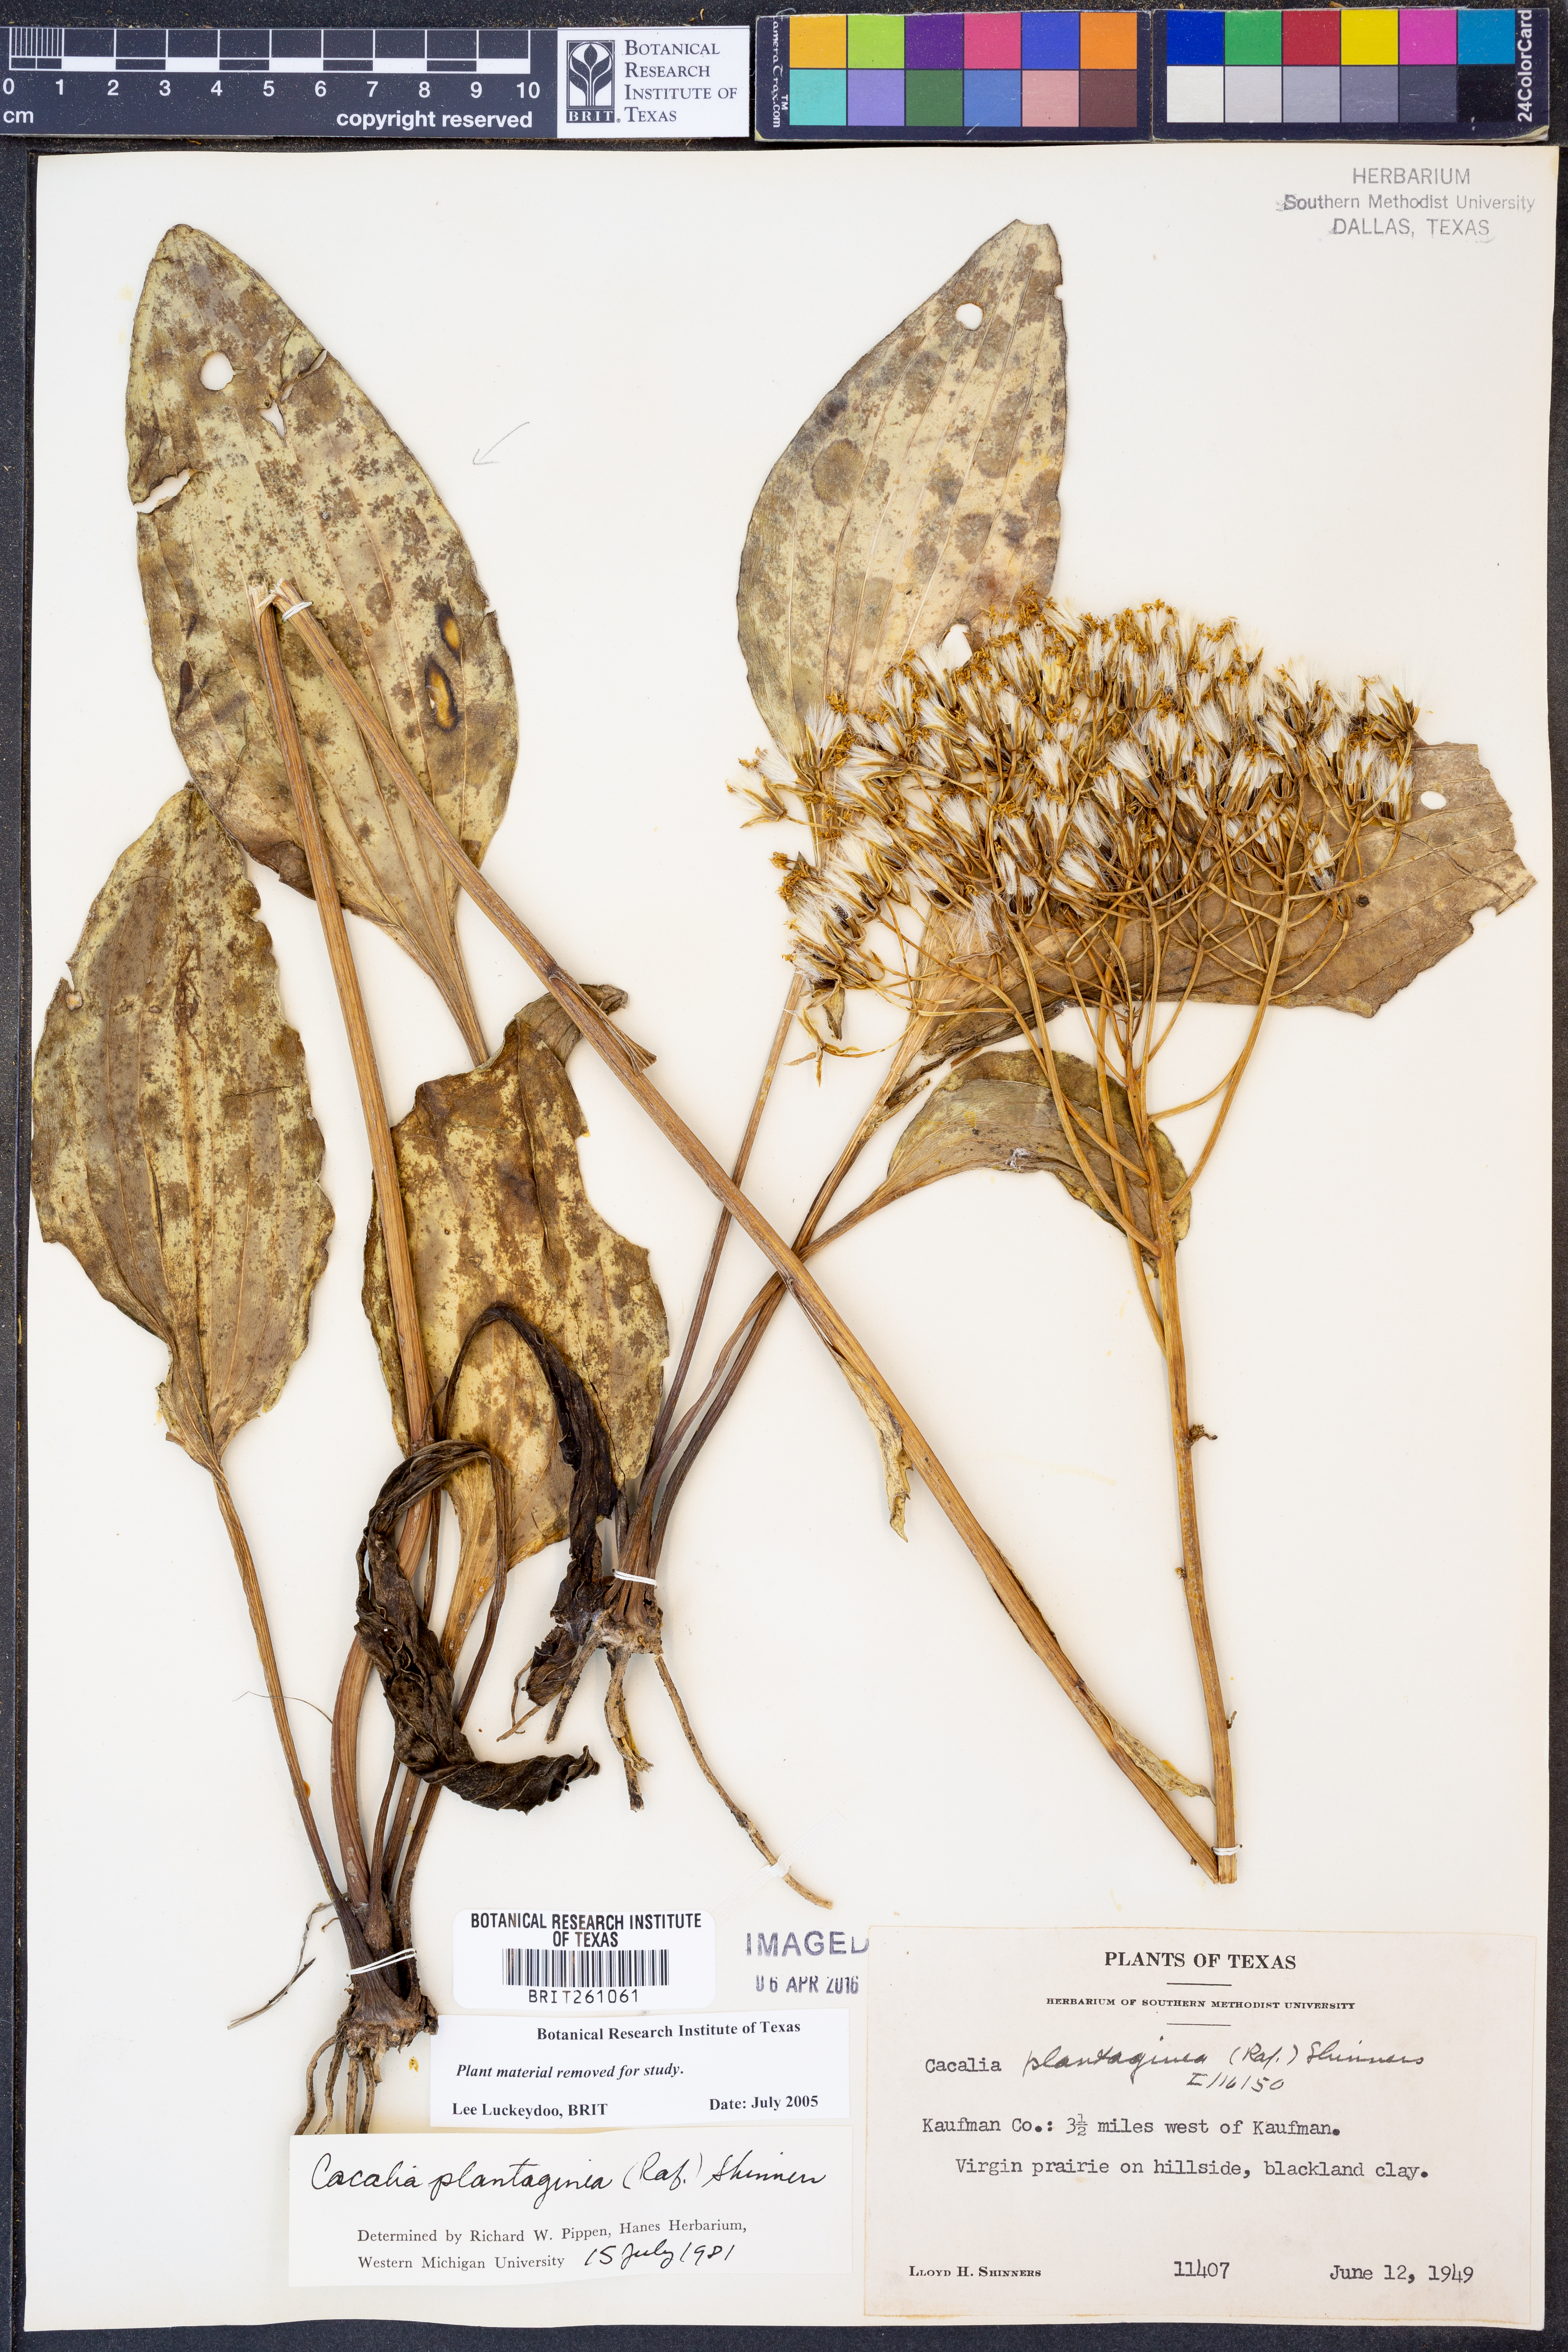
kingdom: Plantae
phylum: Tracheophyta
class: Magnoliopsida
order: Asterales
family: Asteraceae
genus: Arnoglossum
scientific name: Arnoglossum plantagineum
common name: Groove-stemmed indian-plantain
